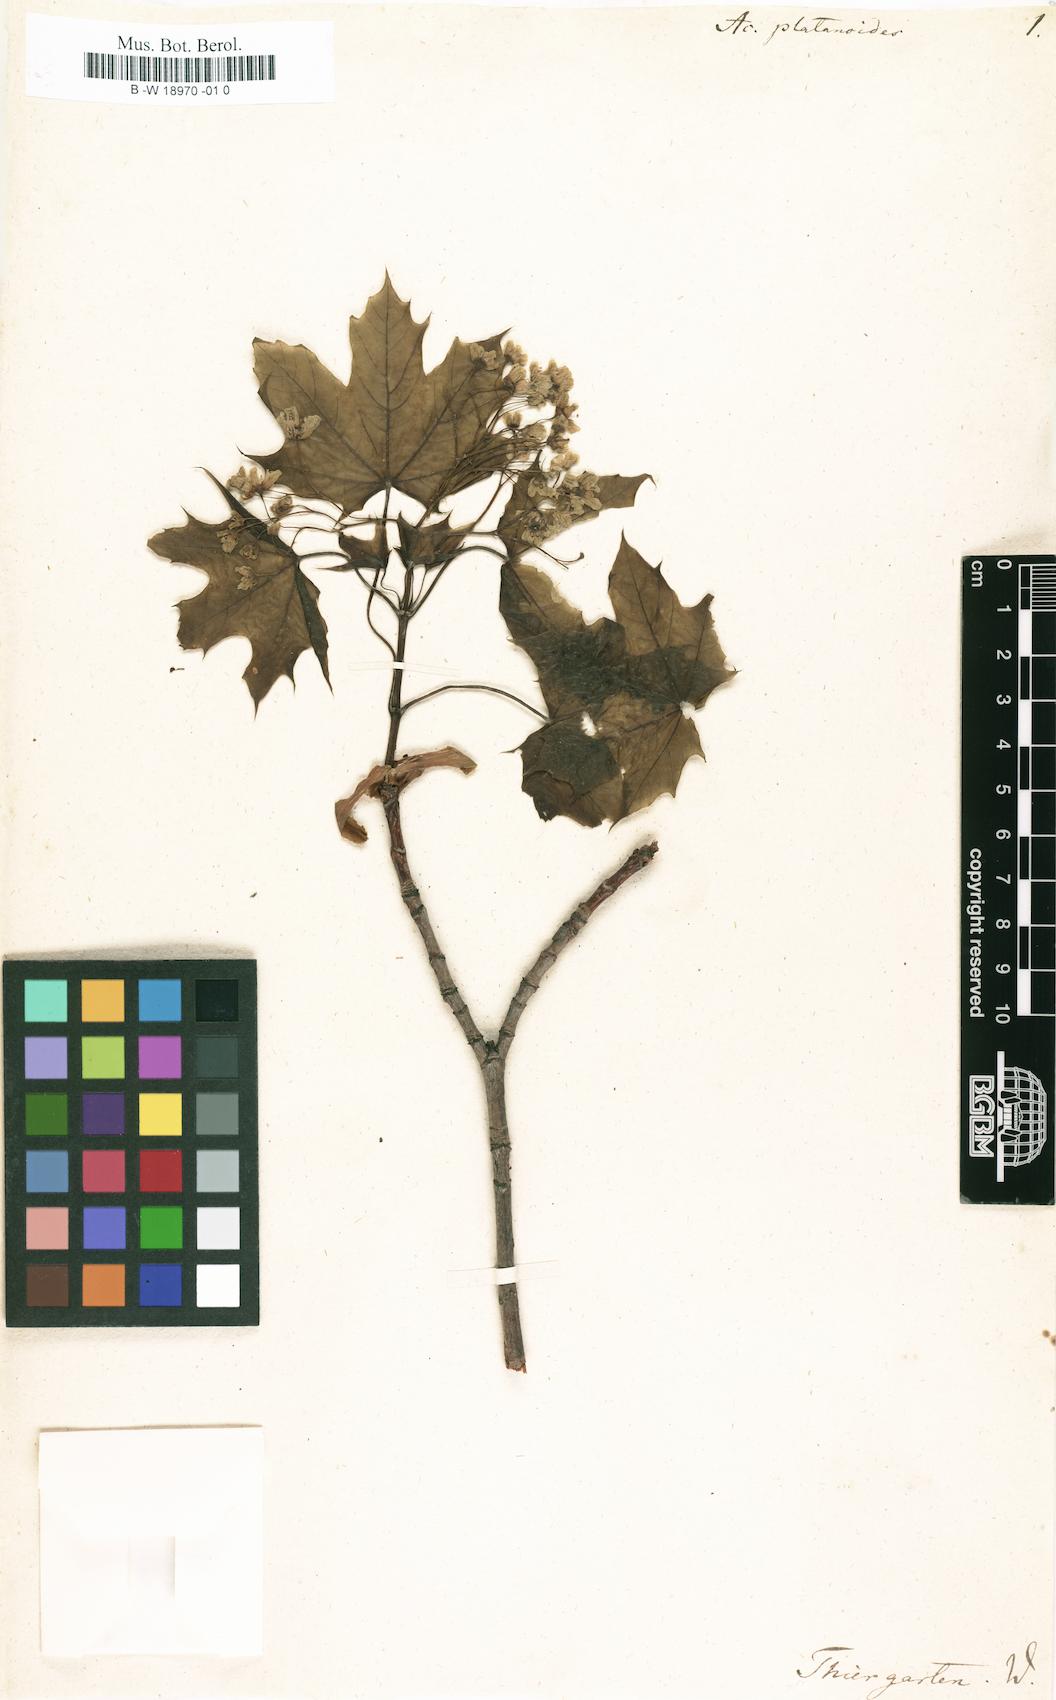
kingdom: Plantae
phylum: Tracheophyta
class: Magnoliopsida
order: Sapindales
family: Sapindaceae
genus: Acer
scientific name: Acer platanoides
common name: Norway maple
